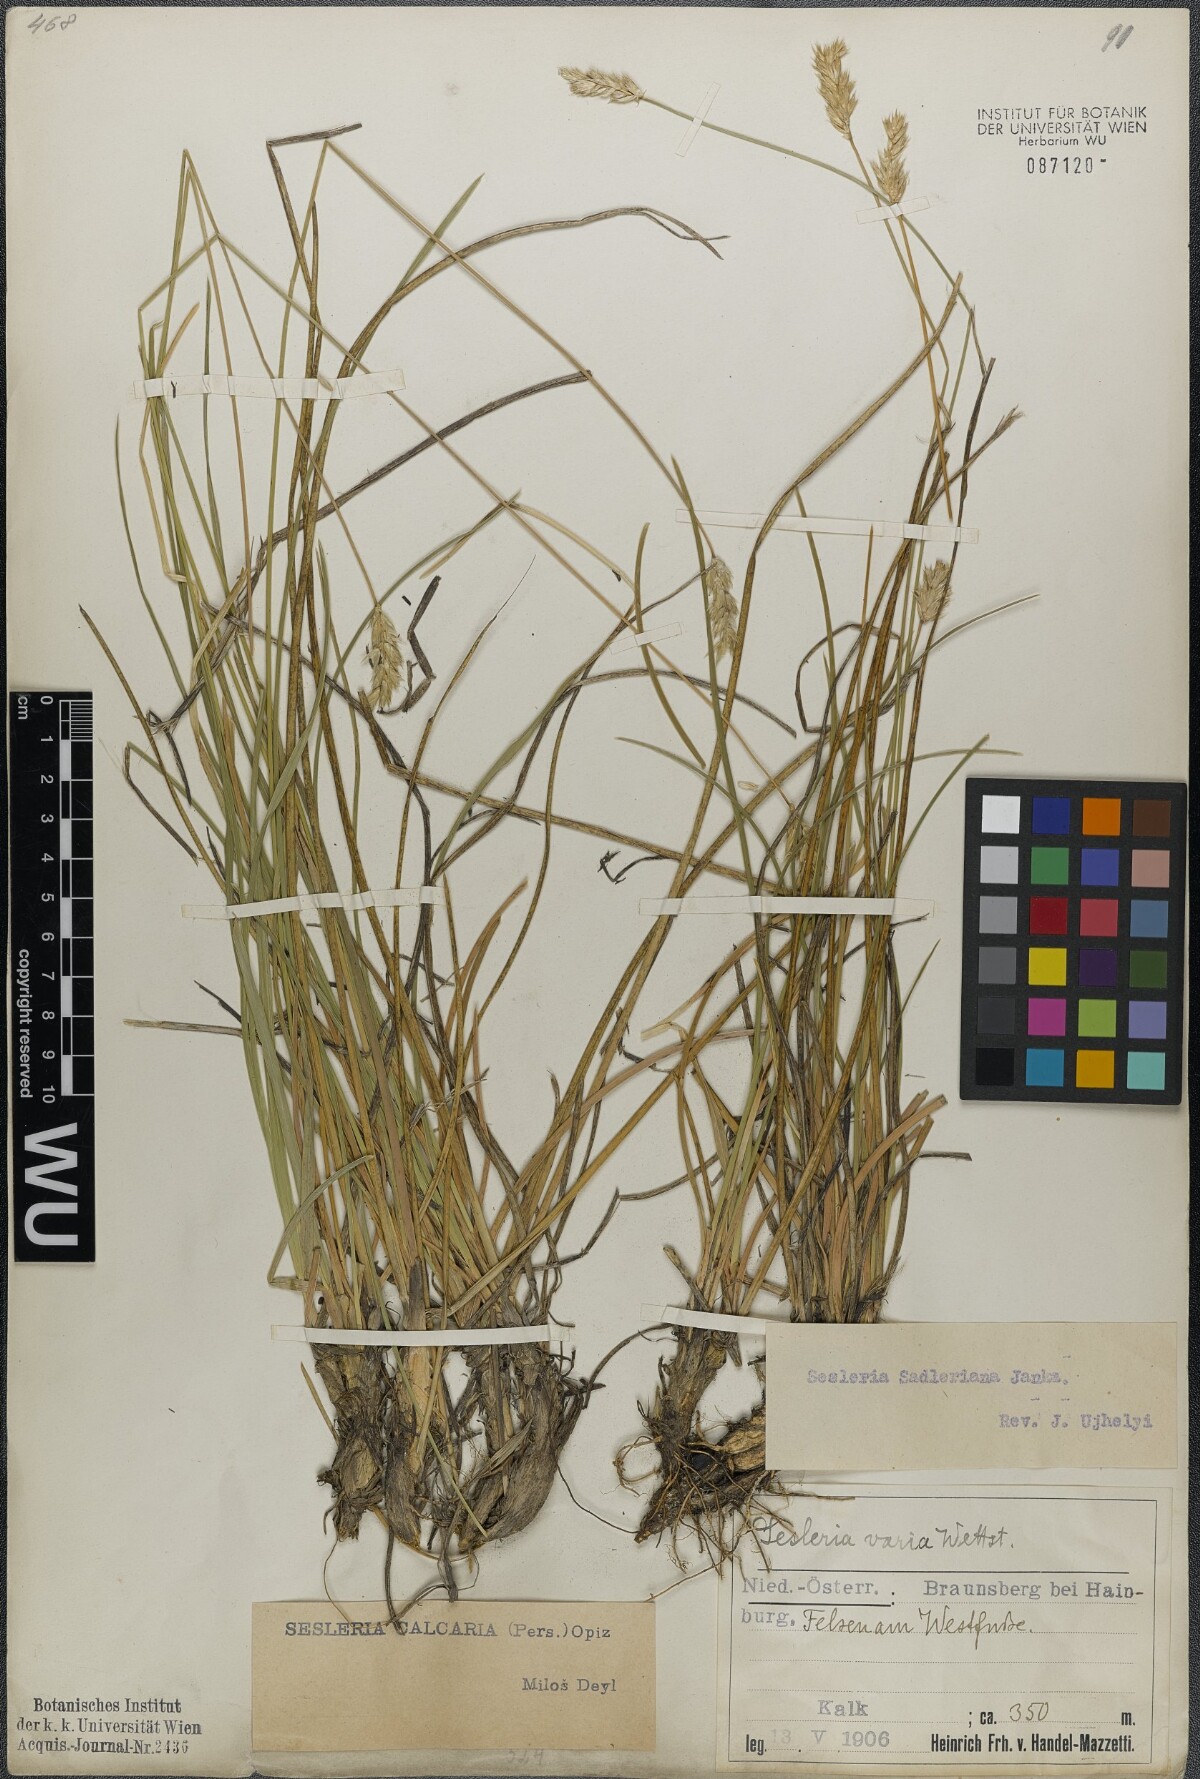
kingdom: Plantae
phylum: Tracheophyta
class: Liliopsida
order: Poales
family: Poaceae
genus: Sesleria
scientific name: Sesleria sadleriana
